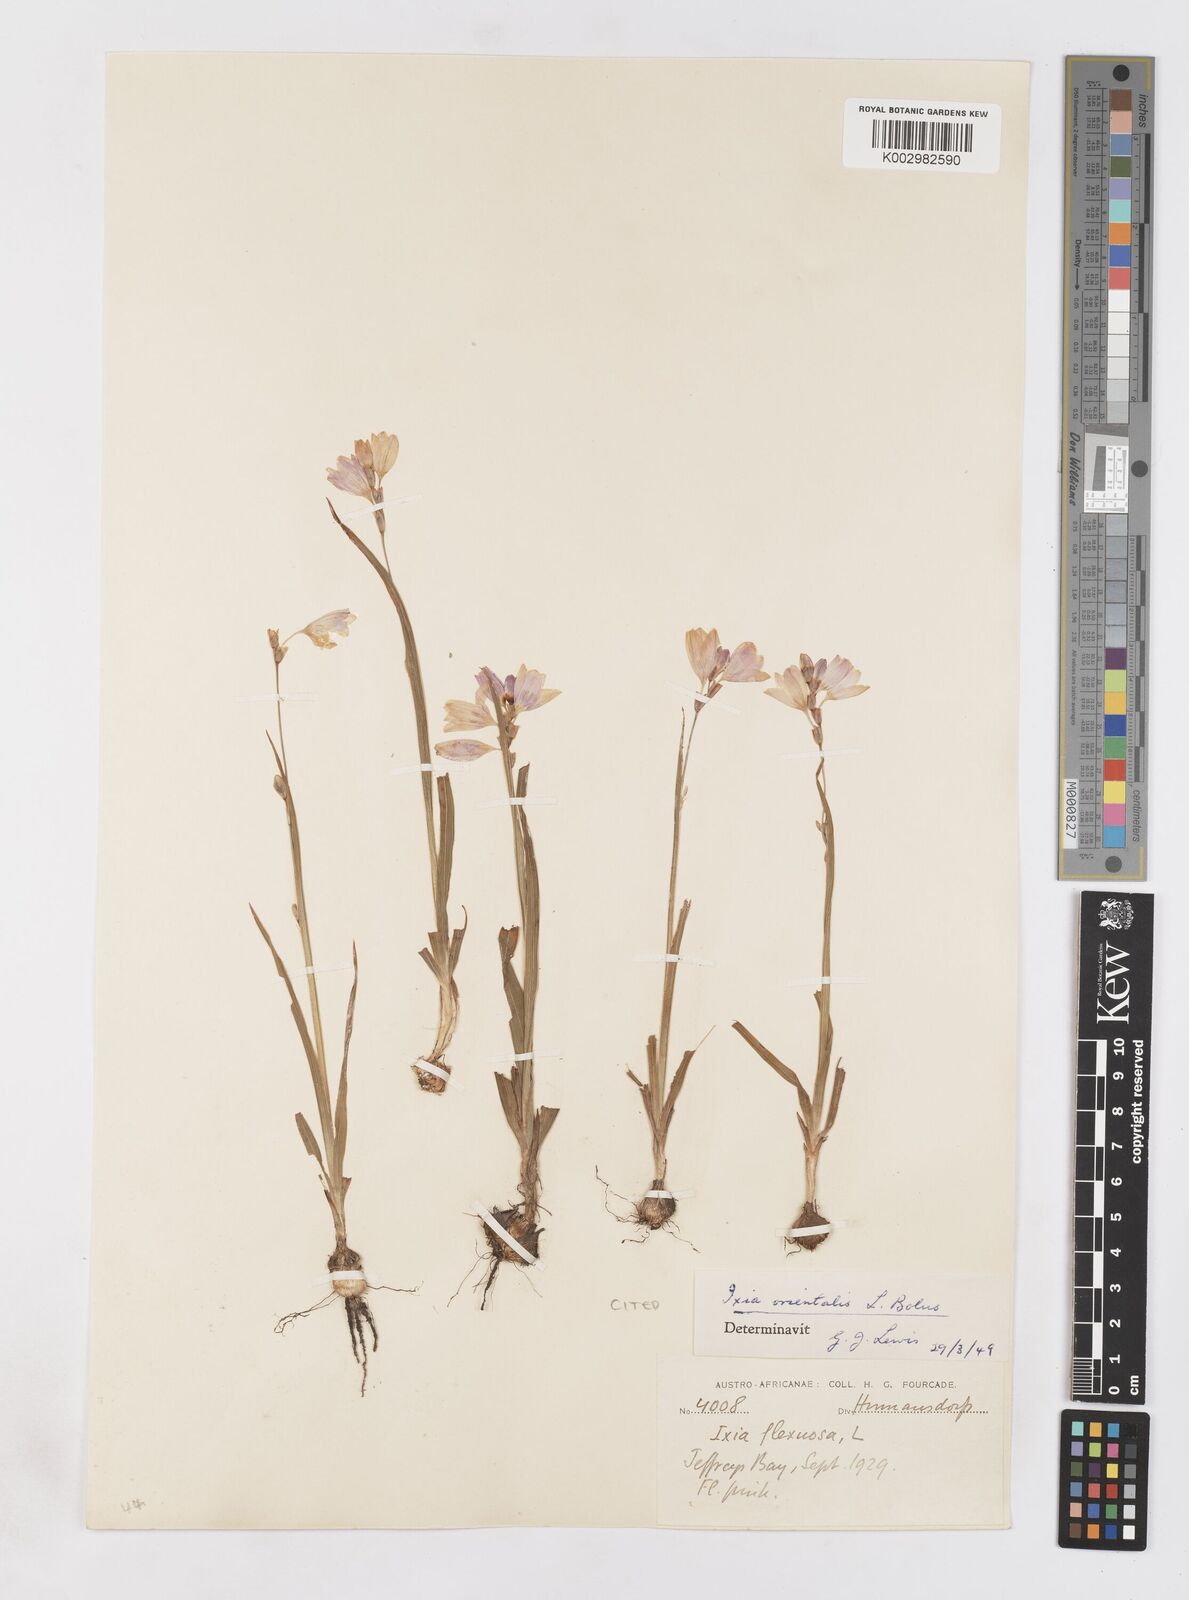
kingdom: Plantae
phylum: Tracheophyta
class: Liliopsida
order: Asparagales
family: Iridaceae
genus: Ixia
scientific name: Ixia orientalis
